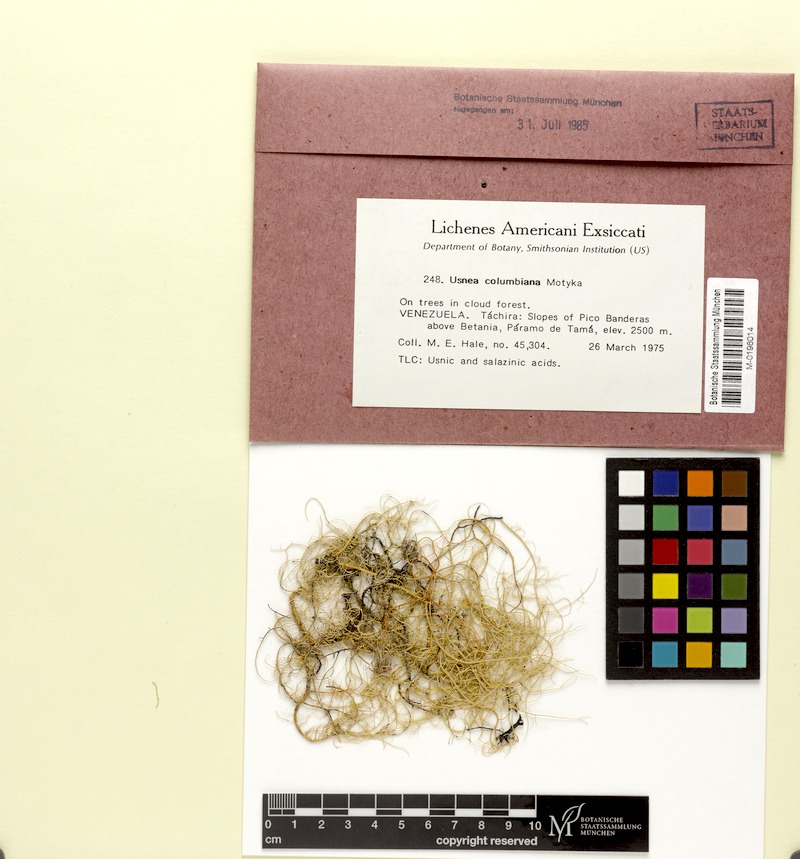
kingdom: Fungi
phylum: Ascomycota
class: Lecanoromycetes
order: Lecanorales
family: Parmeliaceae
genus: Usnea
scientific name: Usnea columbiana
